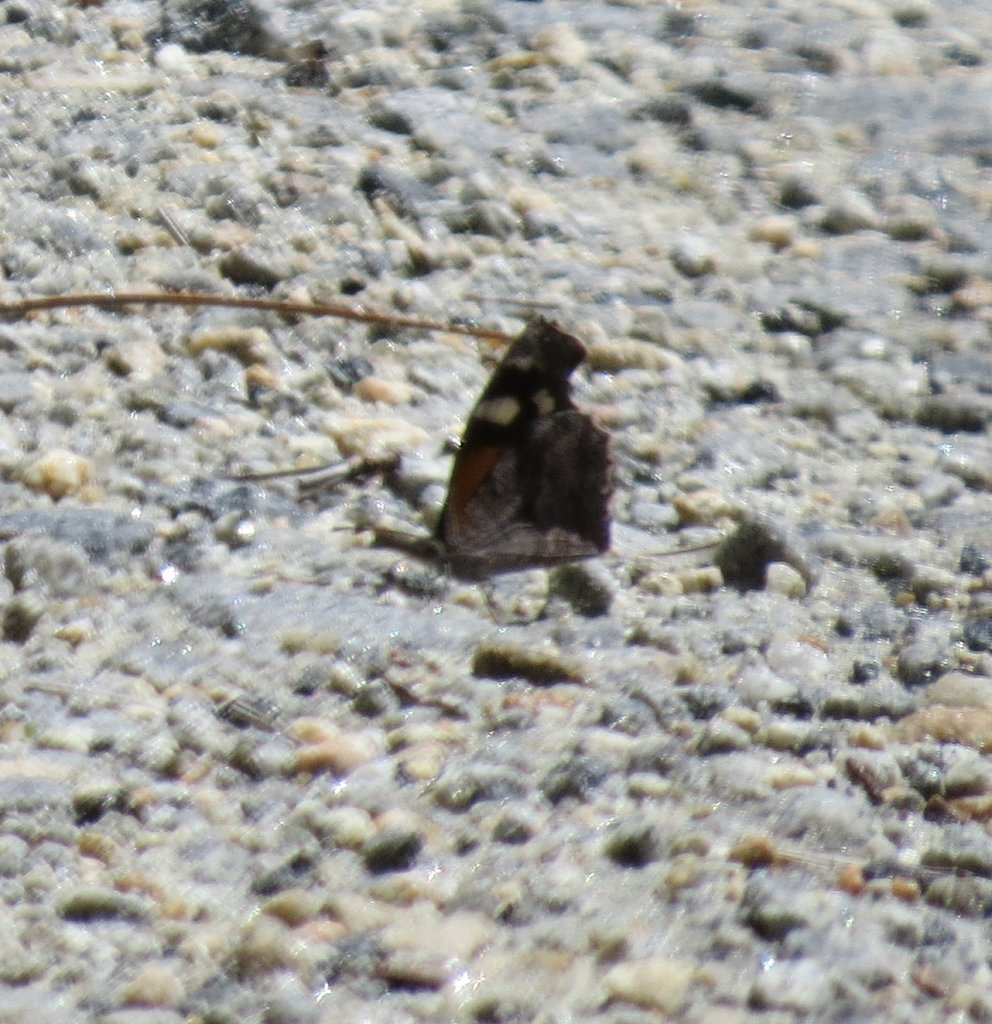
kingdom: Animalia
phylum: Arthropoda
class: Insecta
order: Lepidoptera
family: Nymphalidae
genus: Libytheana
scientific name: Libytheana carinenta
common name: American Snout
